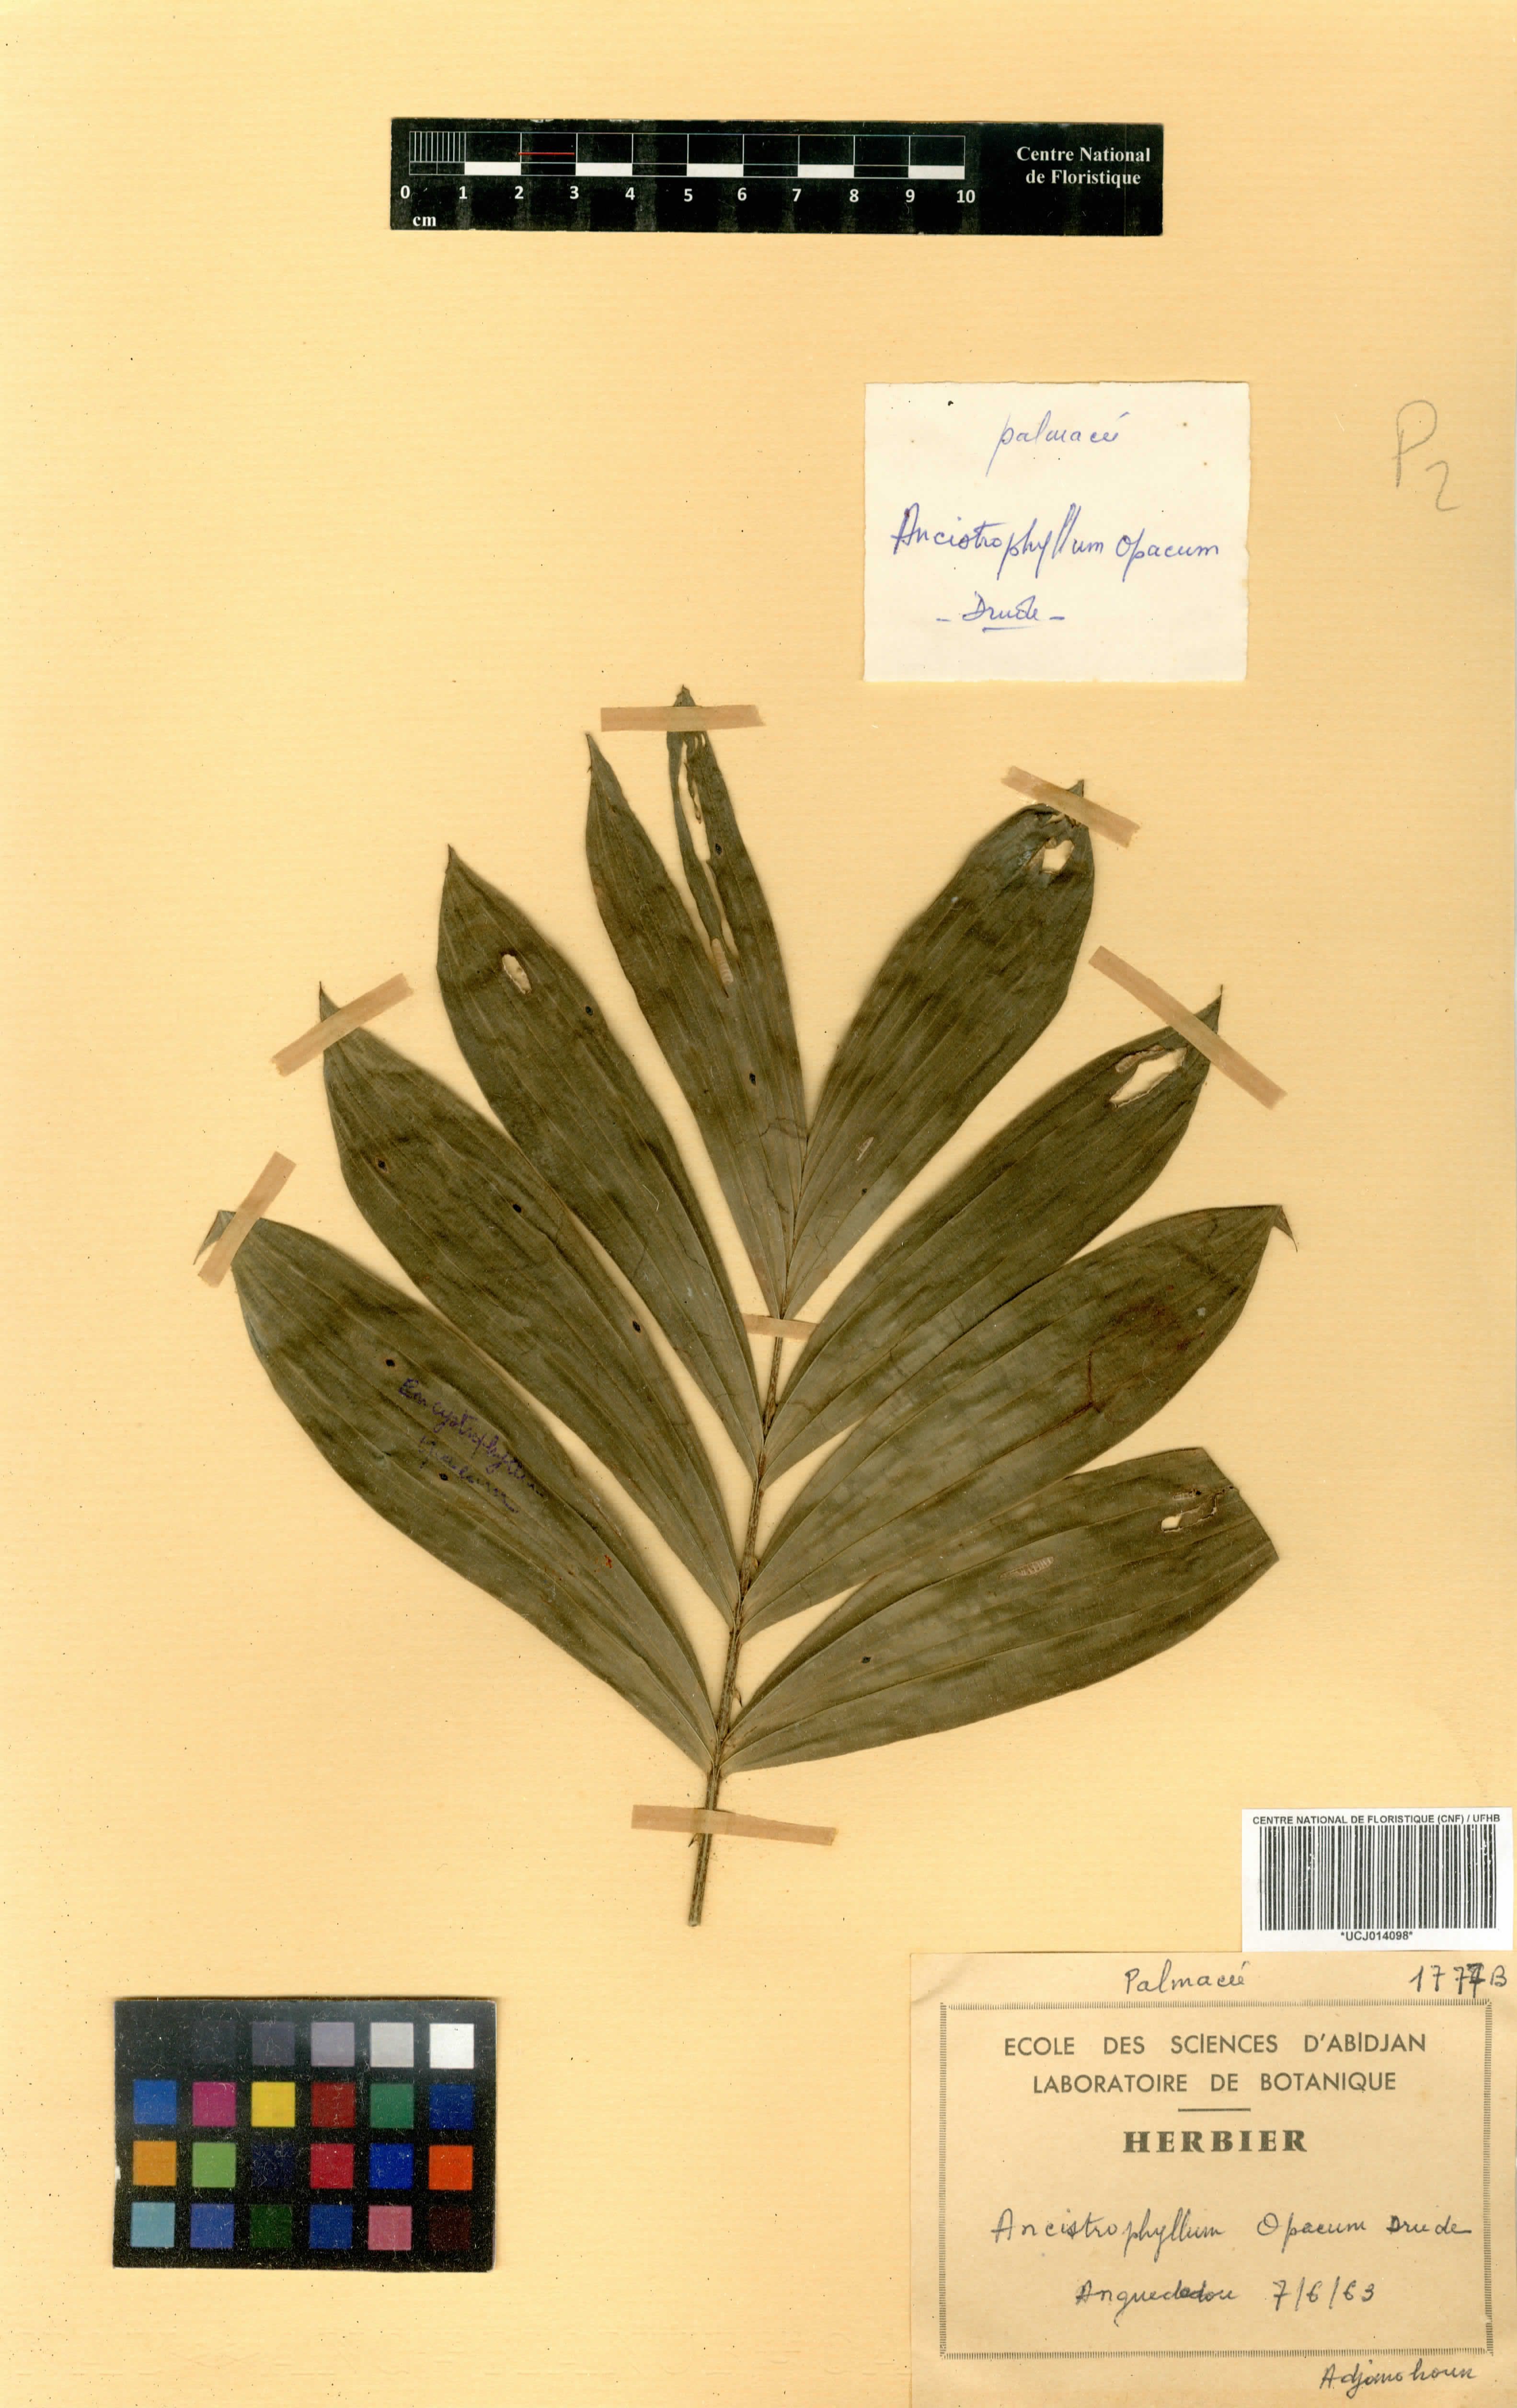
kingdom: Plantae
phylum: Tracheophyta
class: Liliopsida
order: Arecales
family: Arecaceae
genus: Laccosperma
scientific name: Laccosperma opacum
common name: Rattan
